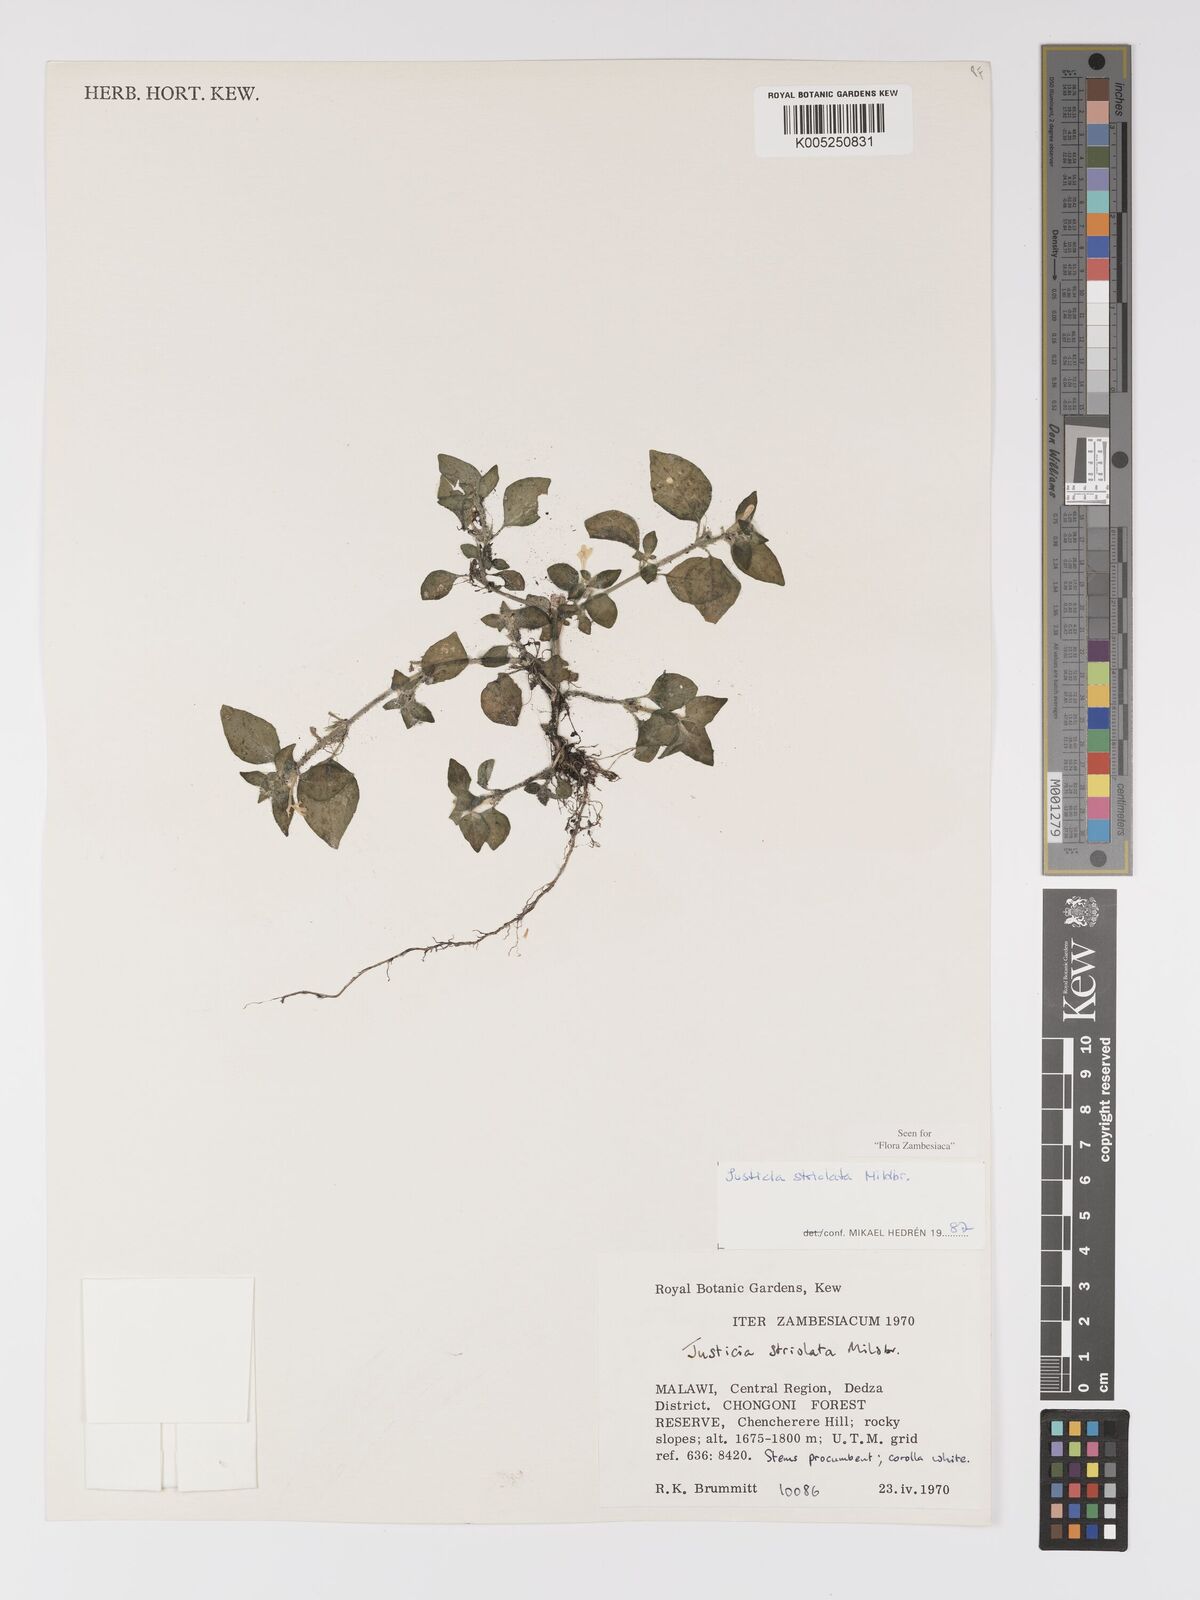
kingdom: Plantae
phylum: Tracheophyta
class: Magnoliopsida
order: Lamiales
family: Acanthaceae
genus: Justicia
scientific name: Justicia striolata
